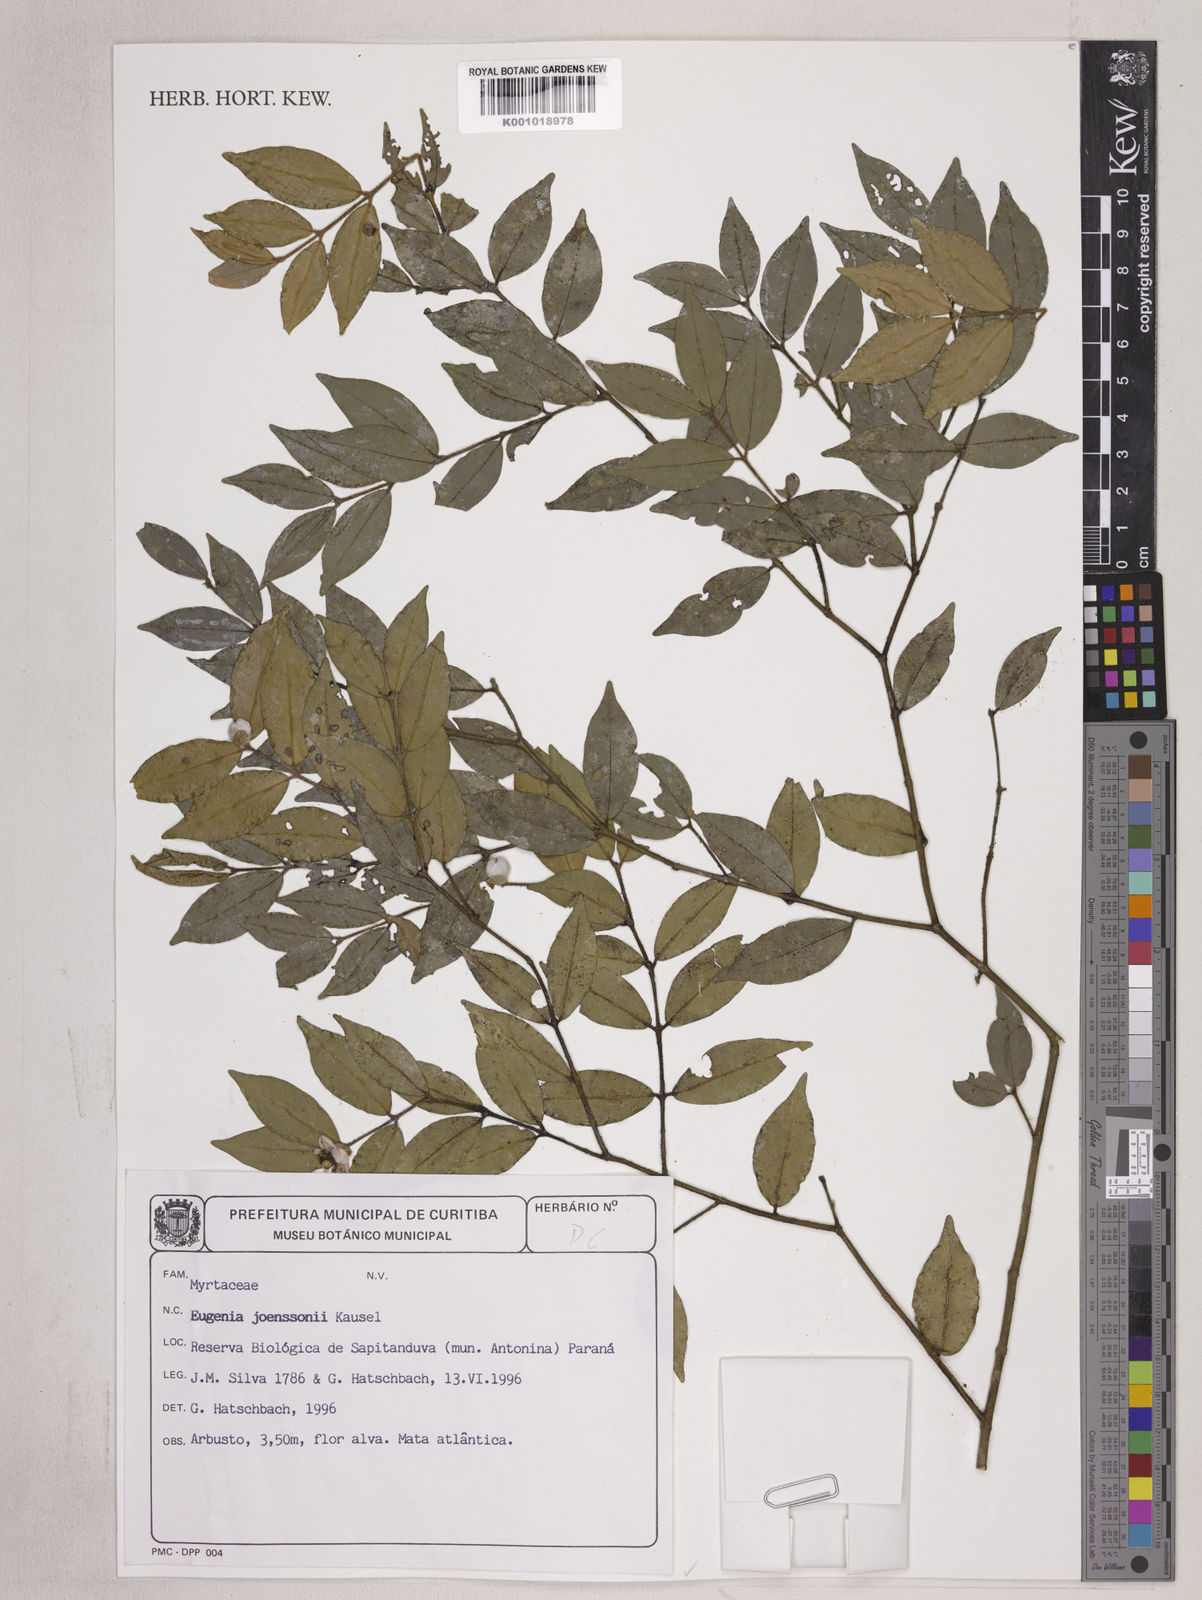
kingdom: Plantae
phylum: Tracheophyta
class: Magnoliopsida
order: Myrtales
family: Myrtaceae
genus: Eugenia
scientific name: Eugenia joenssonii
